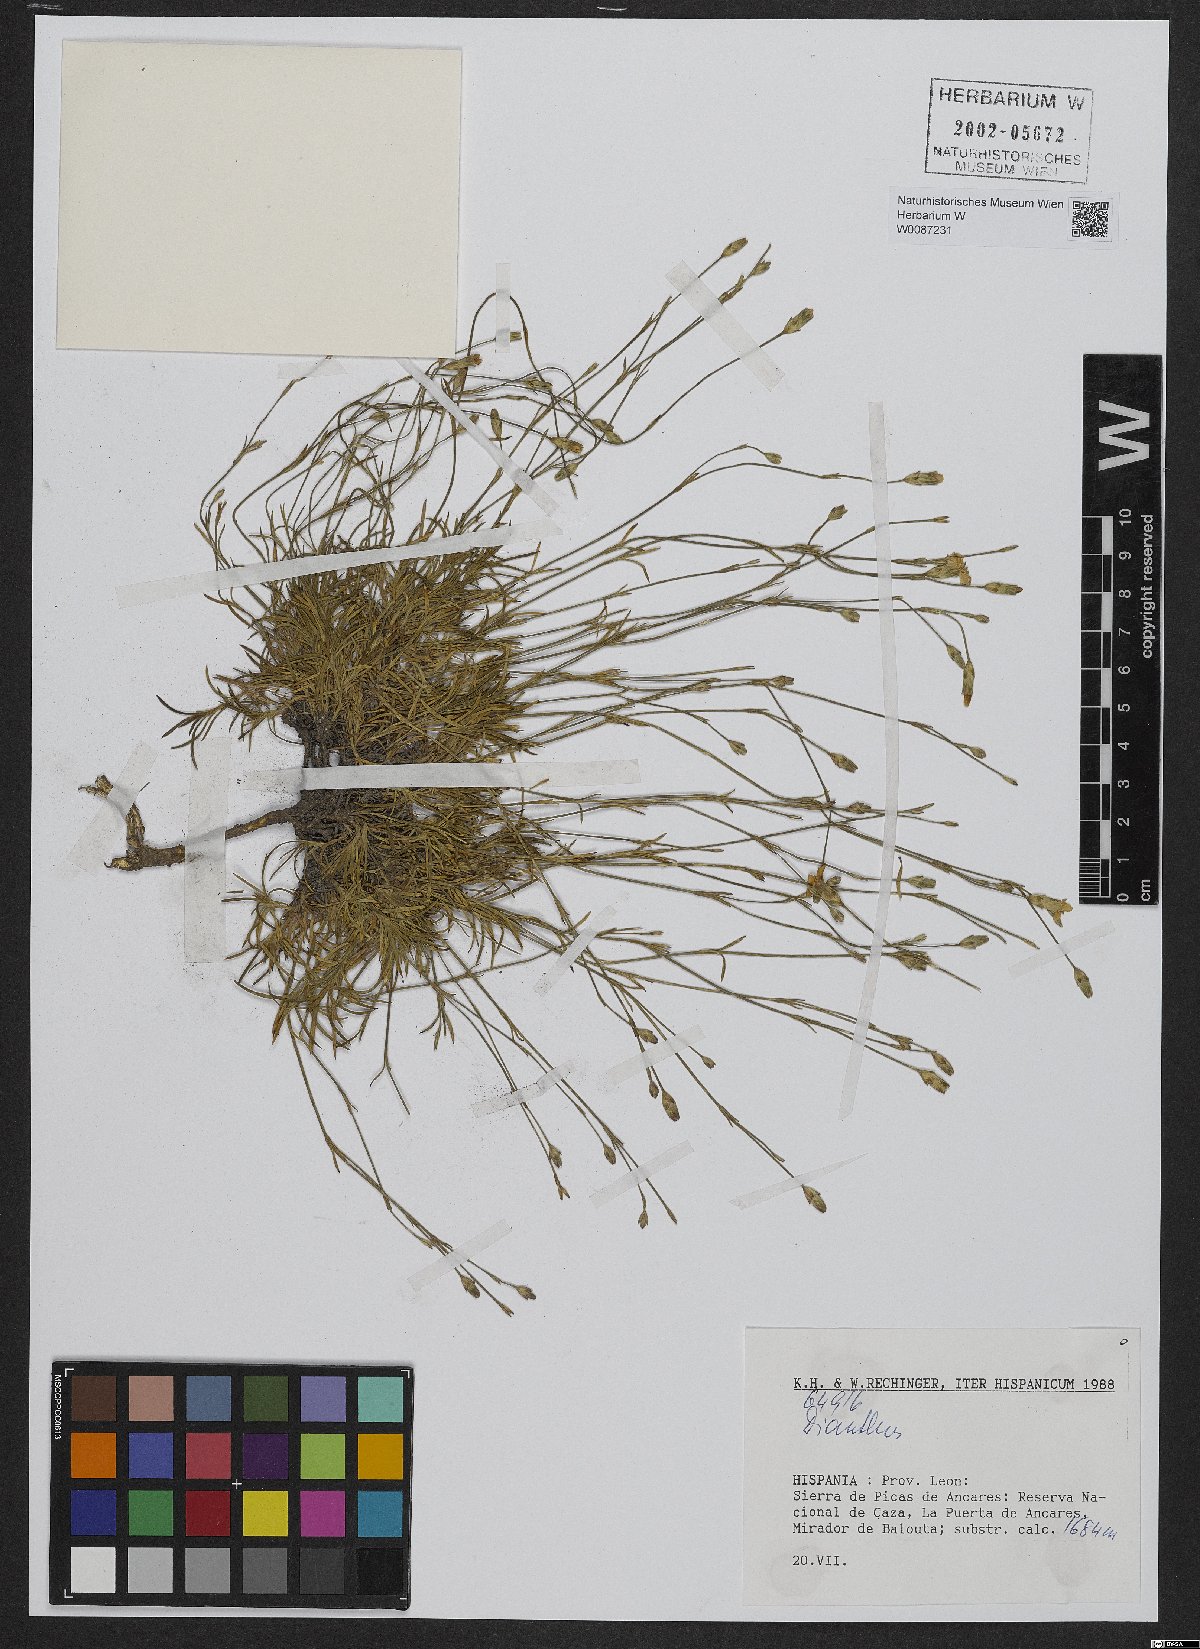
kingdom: Plantae
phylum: Tracheophyta
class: Magnoliopsida
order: Caryophyllales
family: Caryophyllaceae
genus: Dianthus
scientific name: Dianthus
